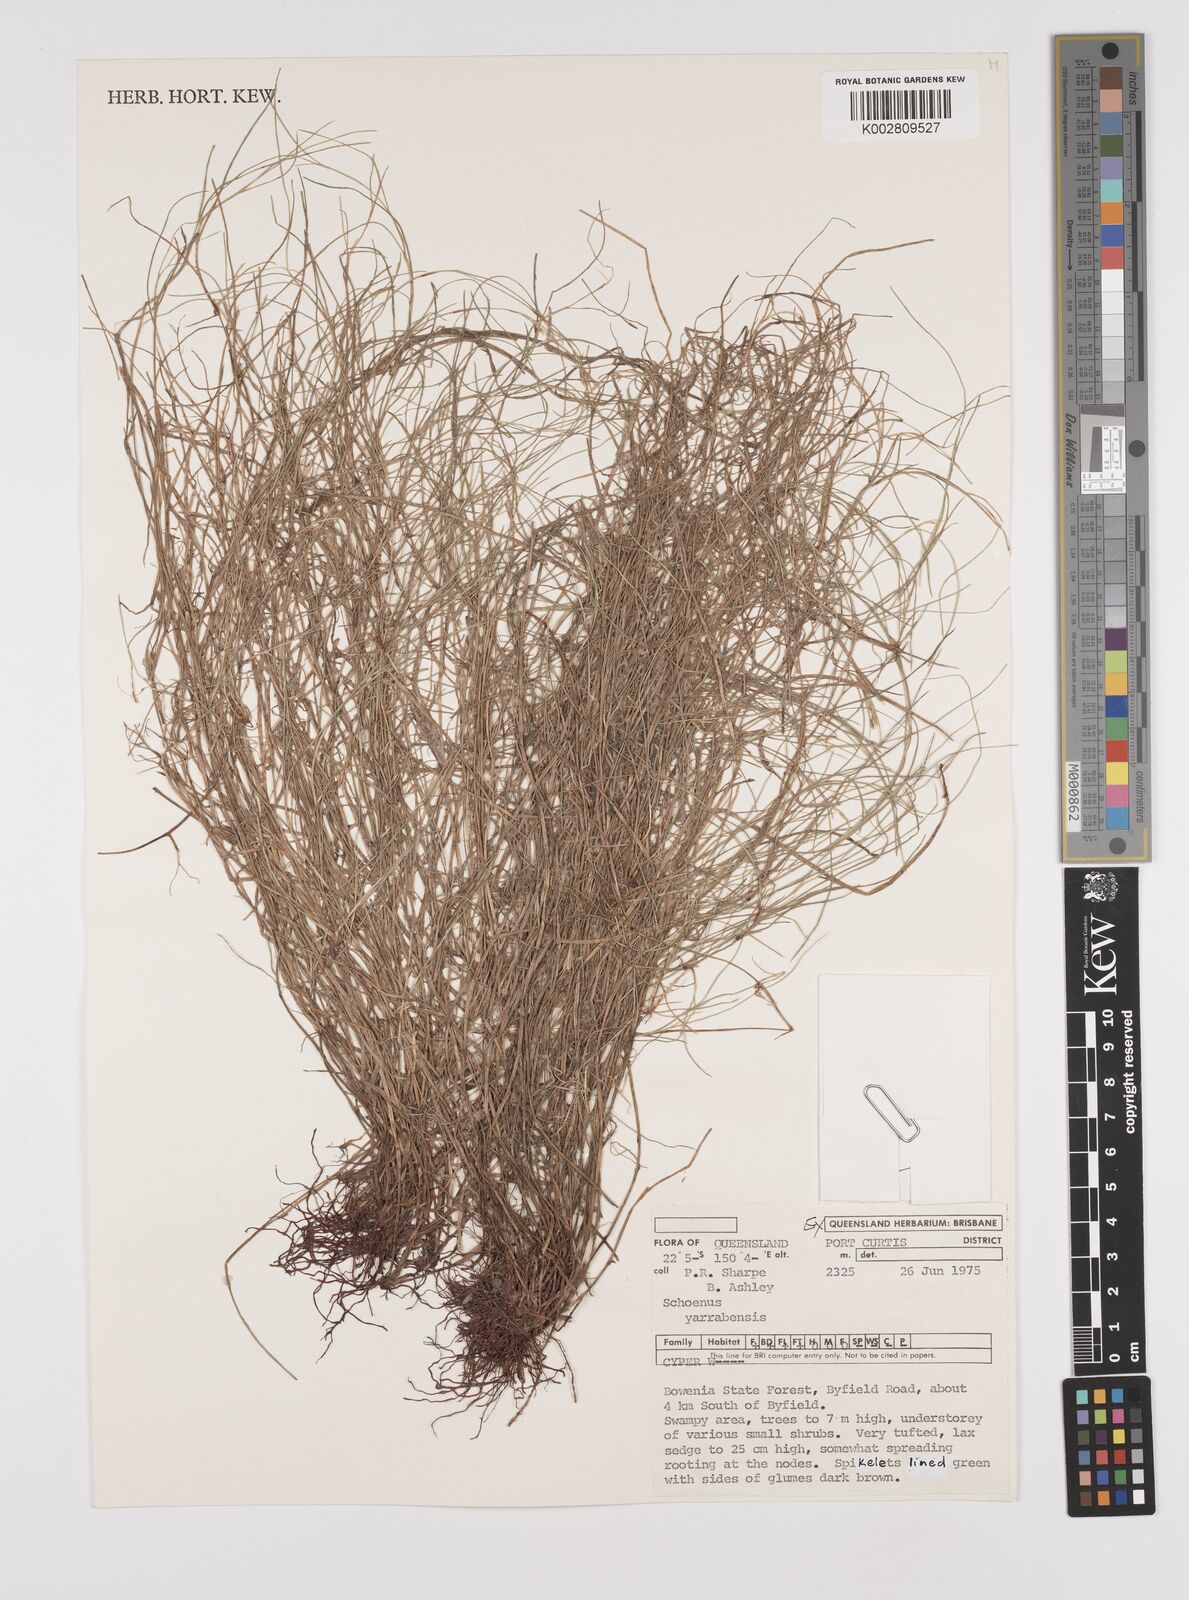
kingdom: Plantae
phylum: Tracheophyta
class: Liliopsida
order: Poales
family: Cyperaceae
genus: Schoenus
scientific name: Schoenus yarrabensis
